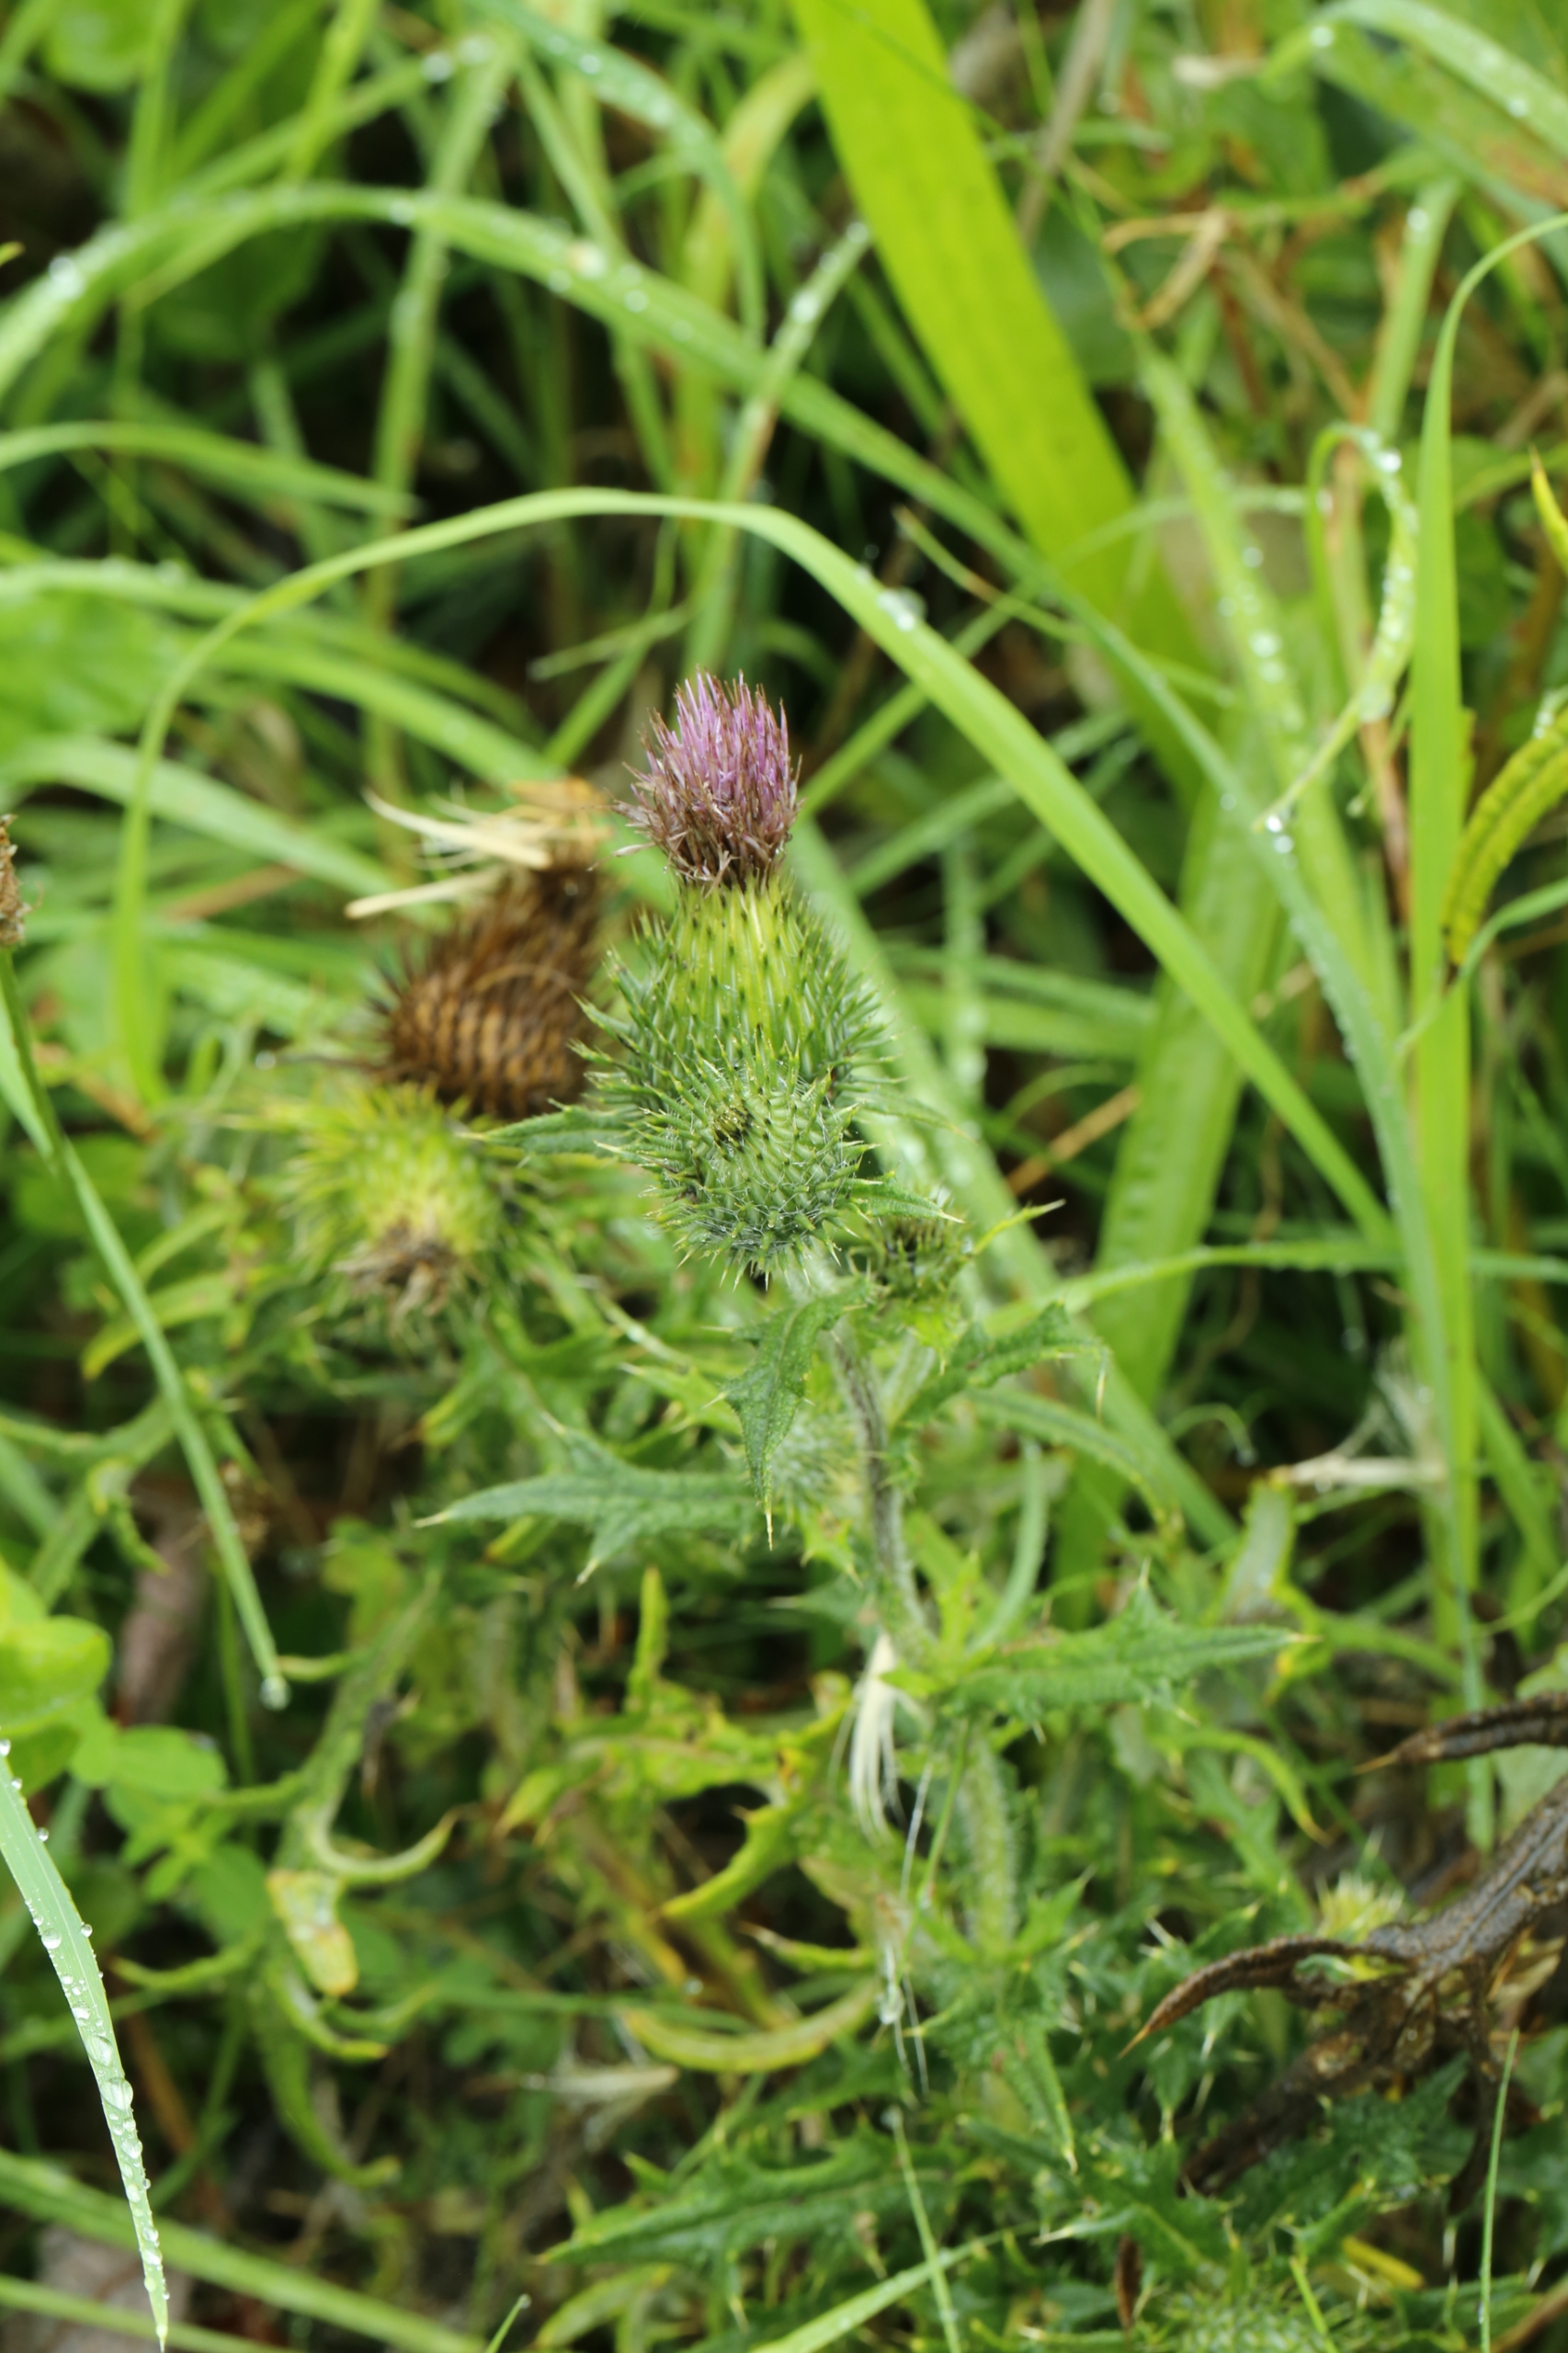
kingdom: Plantae
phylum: Tracheophyta
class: Magnoliopsida
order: Asterales
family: Asteraceae
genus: Cirsium
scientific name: Cirsium vulgare
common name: Horse-tidsel
